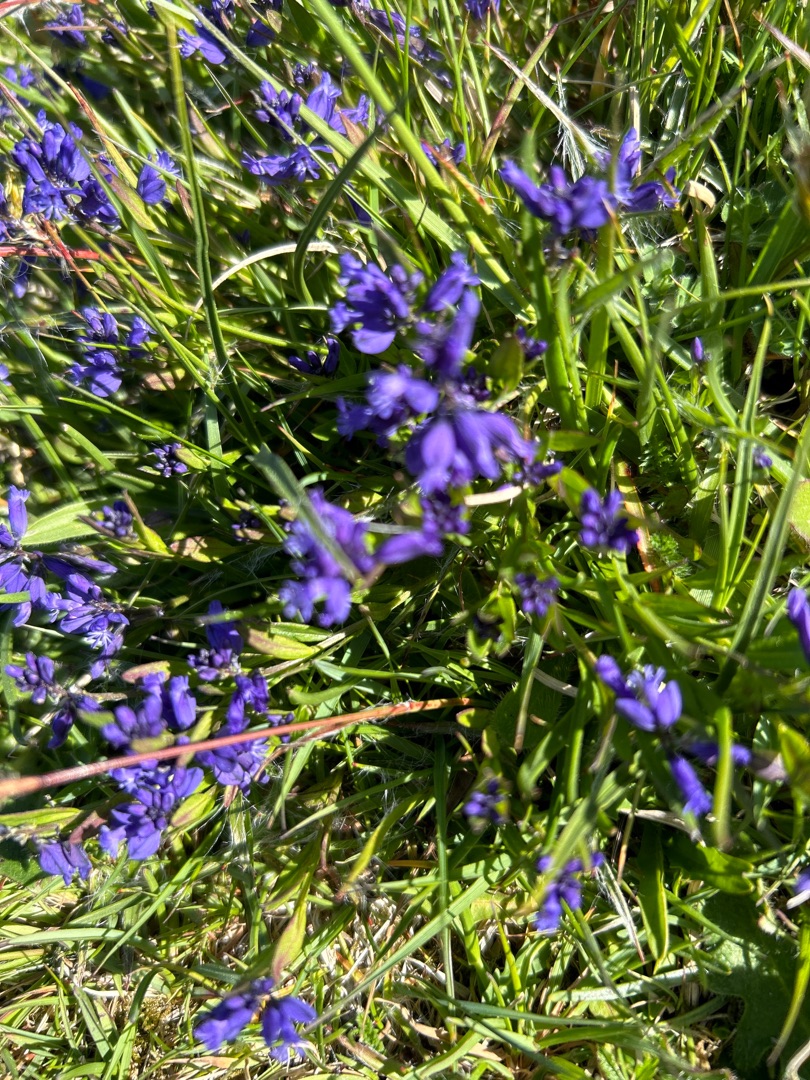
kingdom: Plantae
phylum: Tracheophyta
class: Magnoliopsida
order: Fabales
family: Polygalaceae
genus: Polygala
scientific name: Polygala vulgaris
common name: Almindelig mælkeurt
